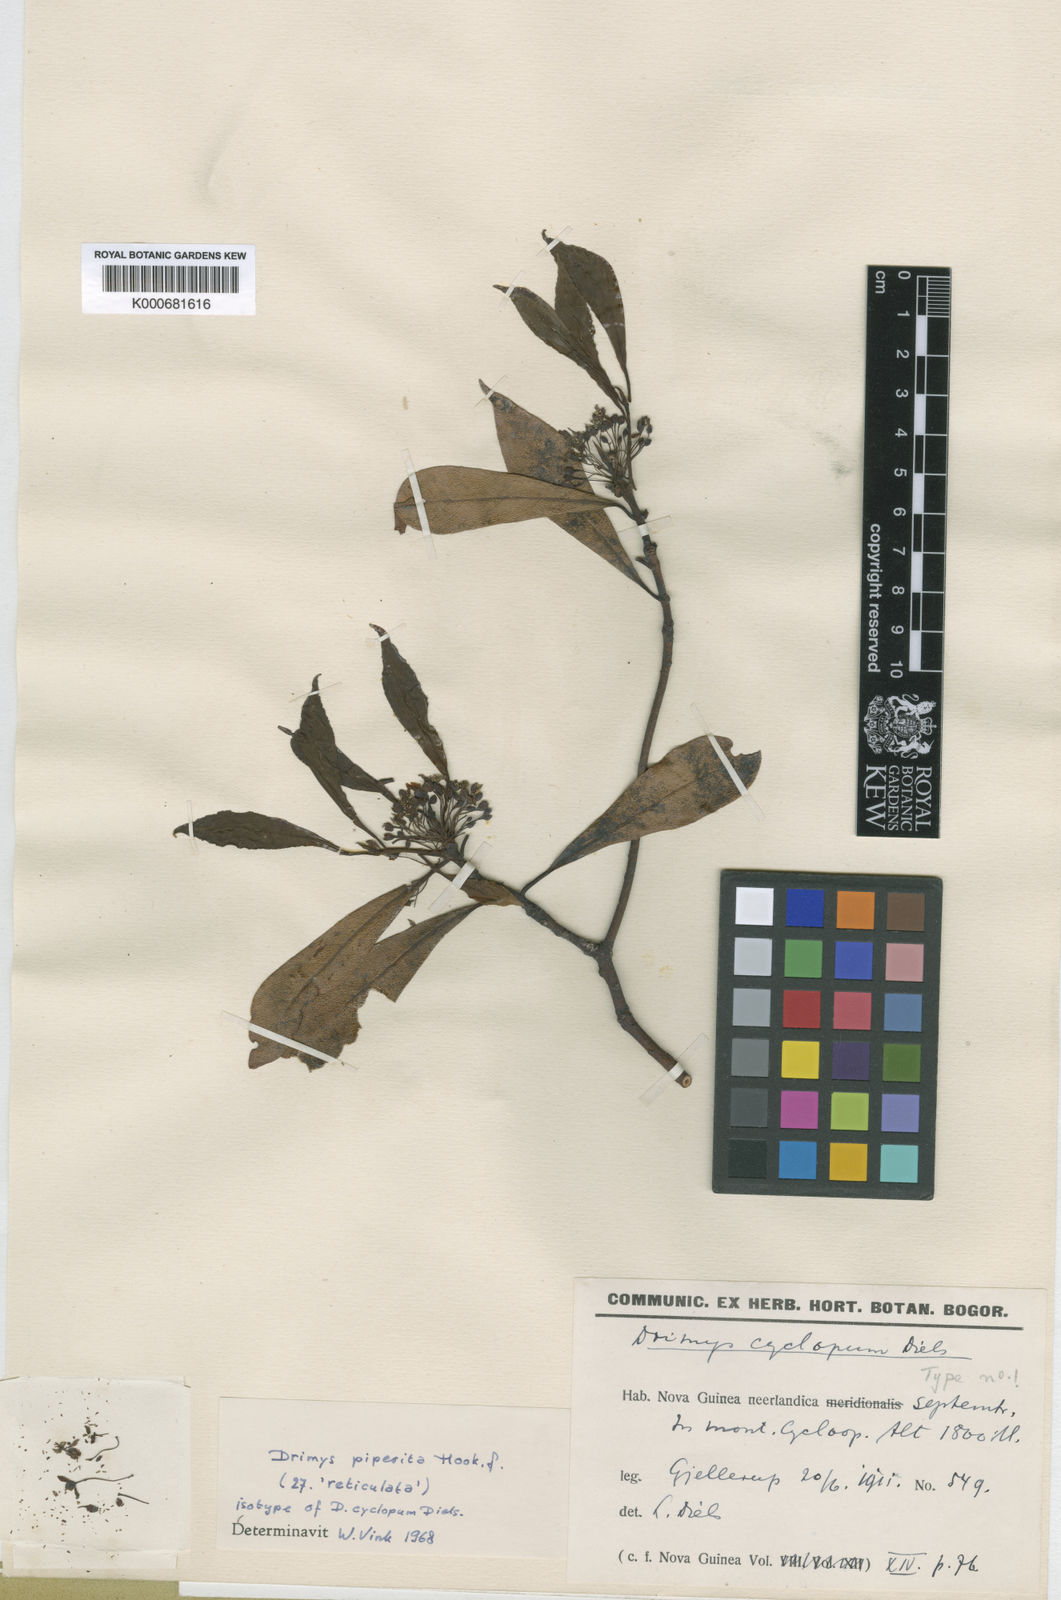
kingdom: Plantae
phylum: Tracheophyta
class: Magnoliopsida
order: Canellales
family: Winteraceae
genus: Drimys
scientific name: Drimys piperita
